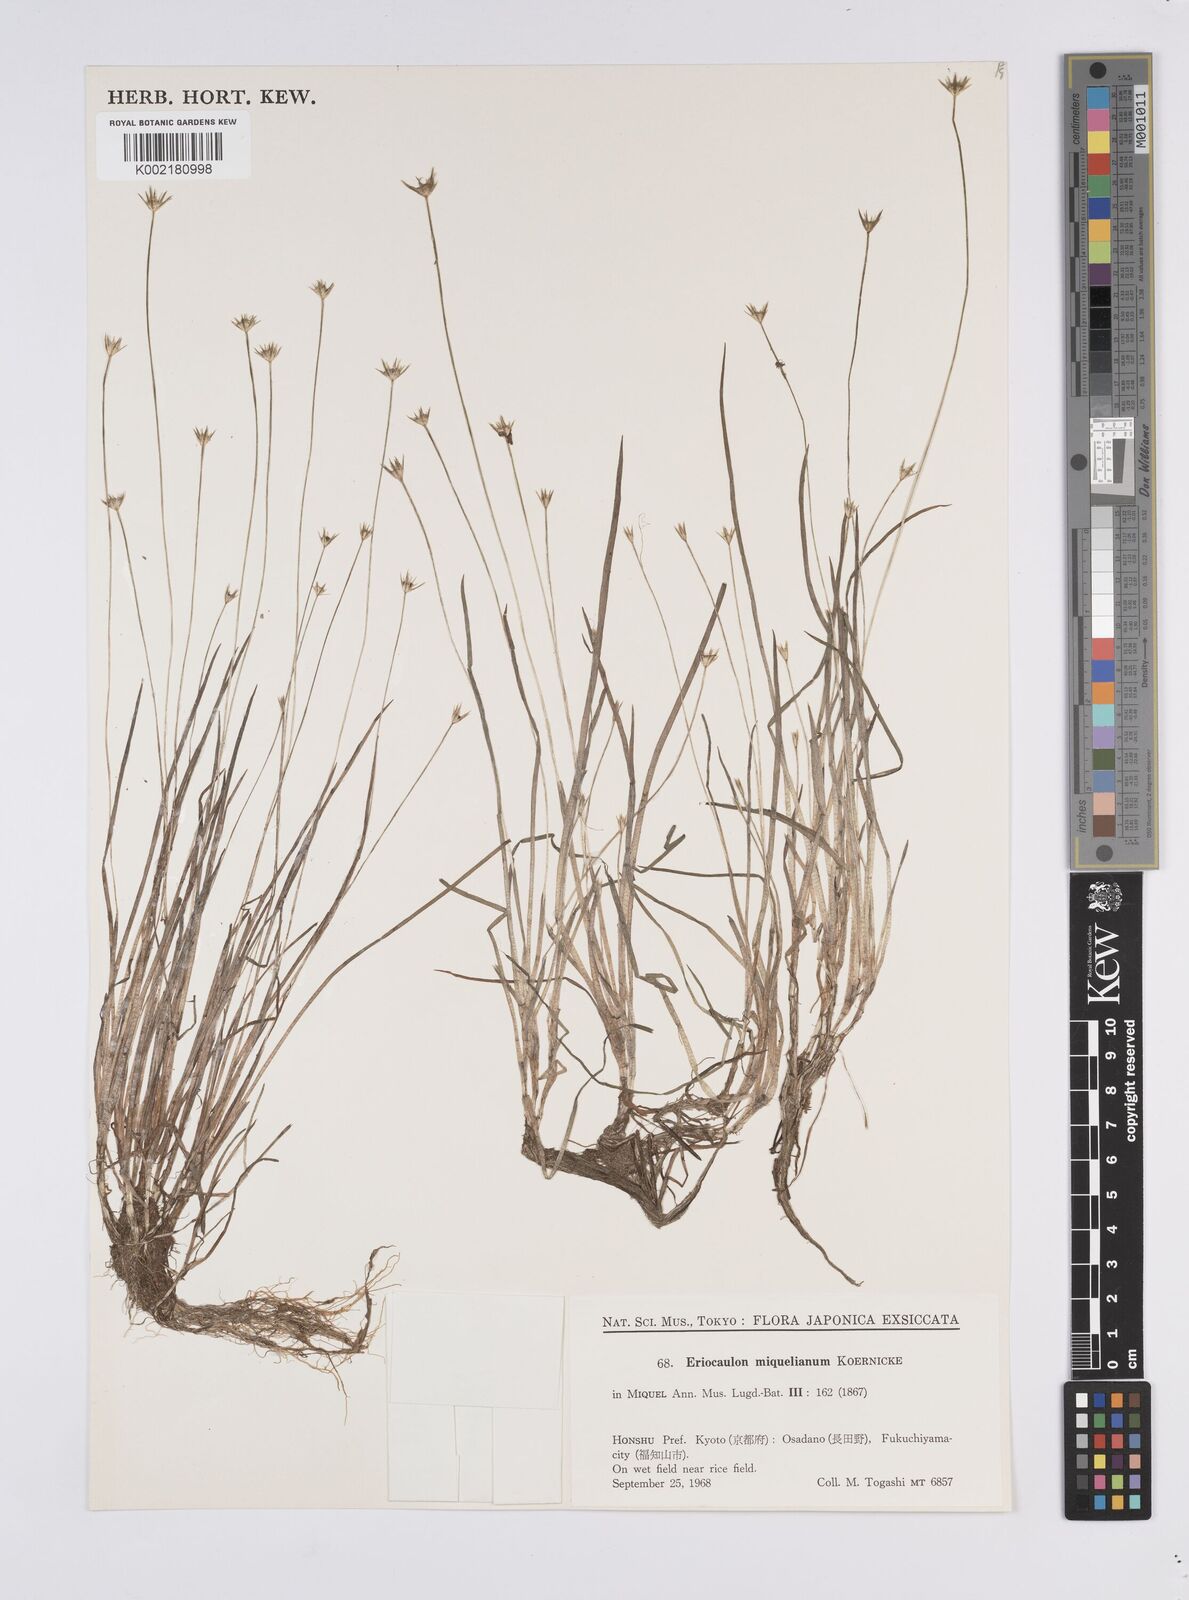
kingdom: Plantae
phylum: Tracheophyta
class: Liliopsida
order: Poales
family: Eriocaulaceae
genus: Eriocaulon
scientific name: Eriocaulon miquelianum
